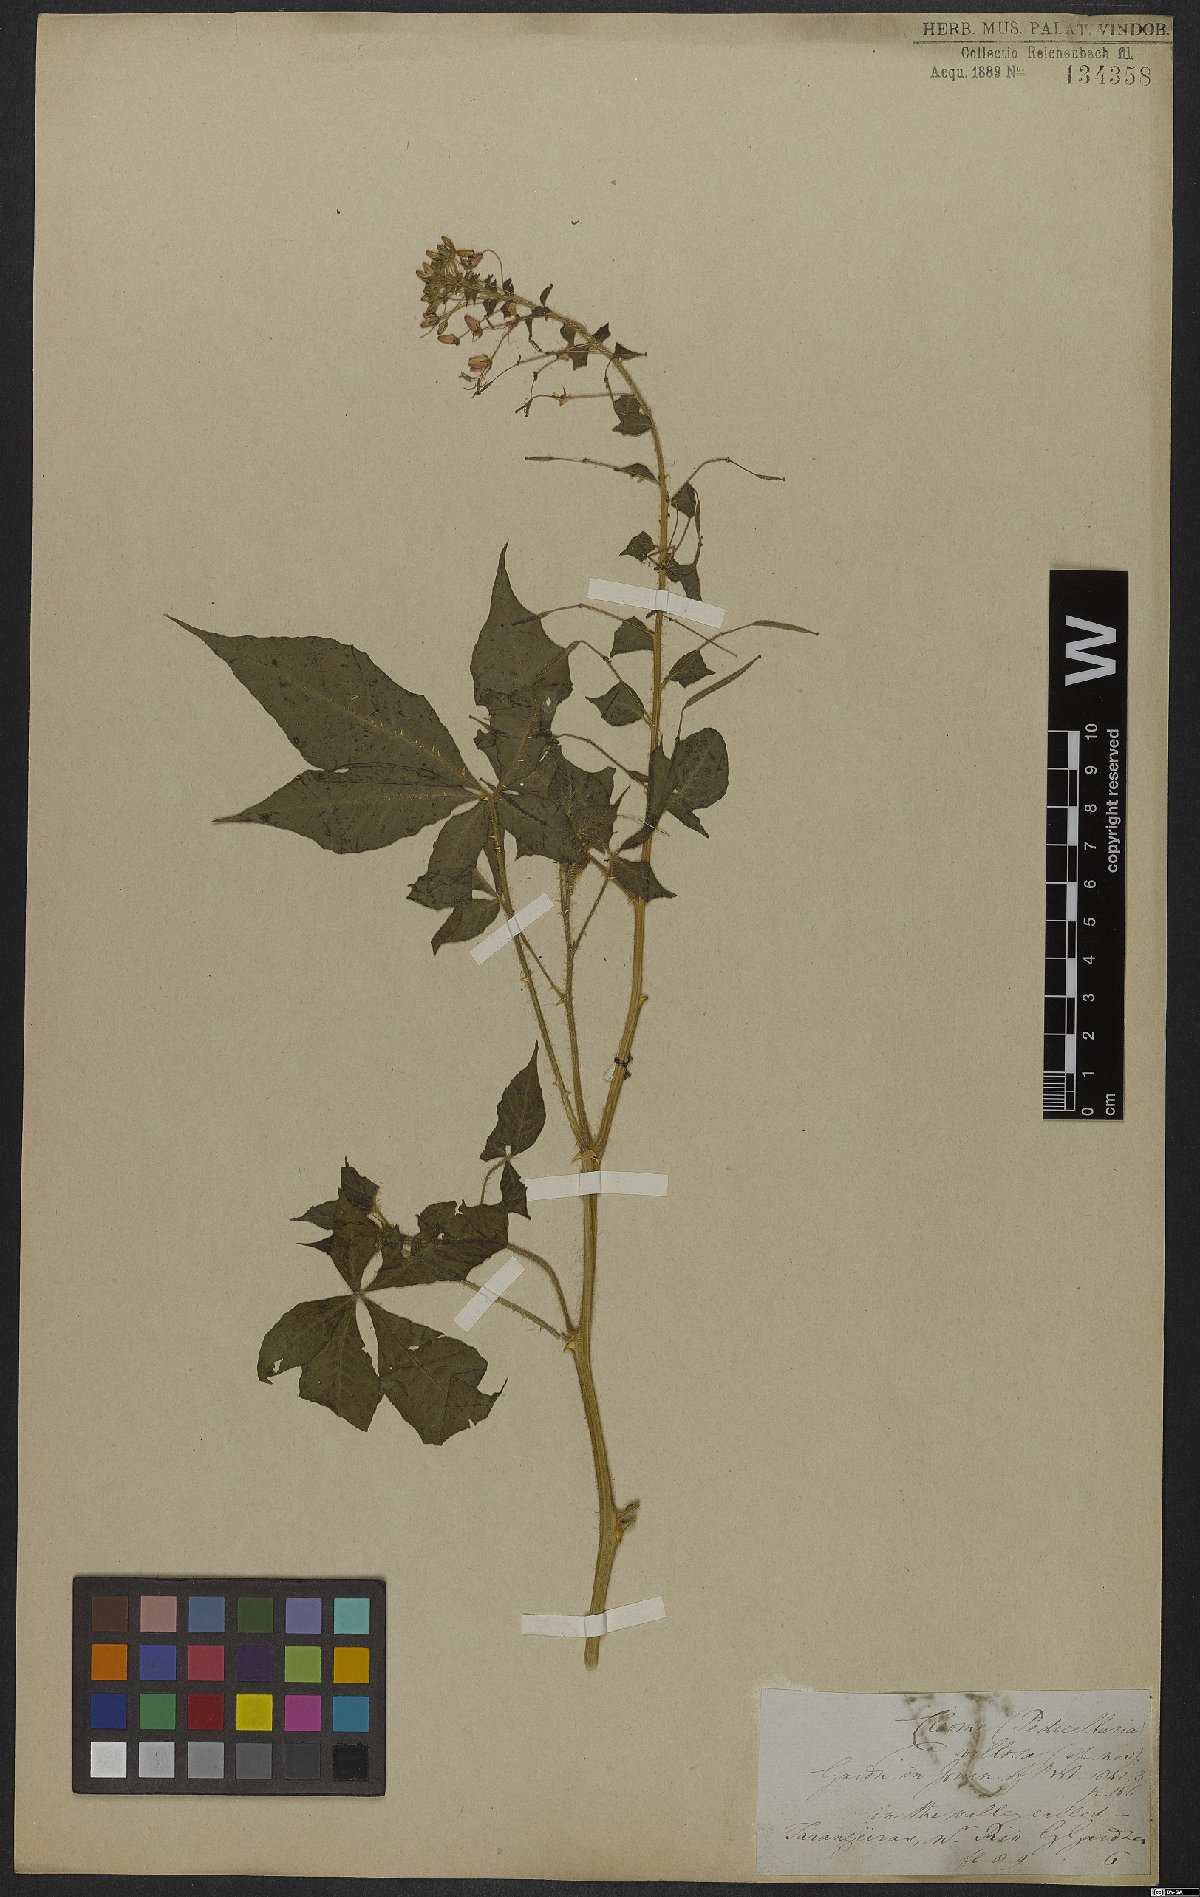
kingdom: Plantae
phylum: Tracheophyta
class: Magnoliopsida
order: Brassicales
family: Cleomaceae
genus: Tarenaya
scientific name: Tarenaya parviflora
